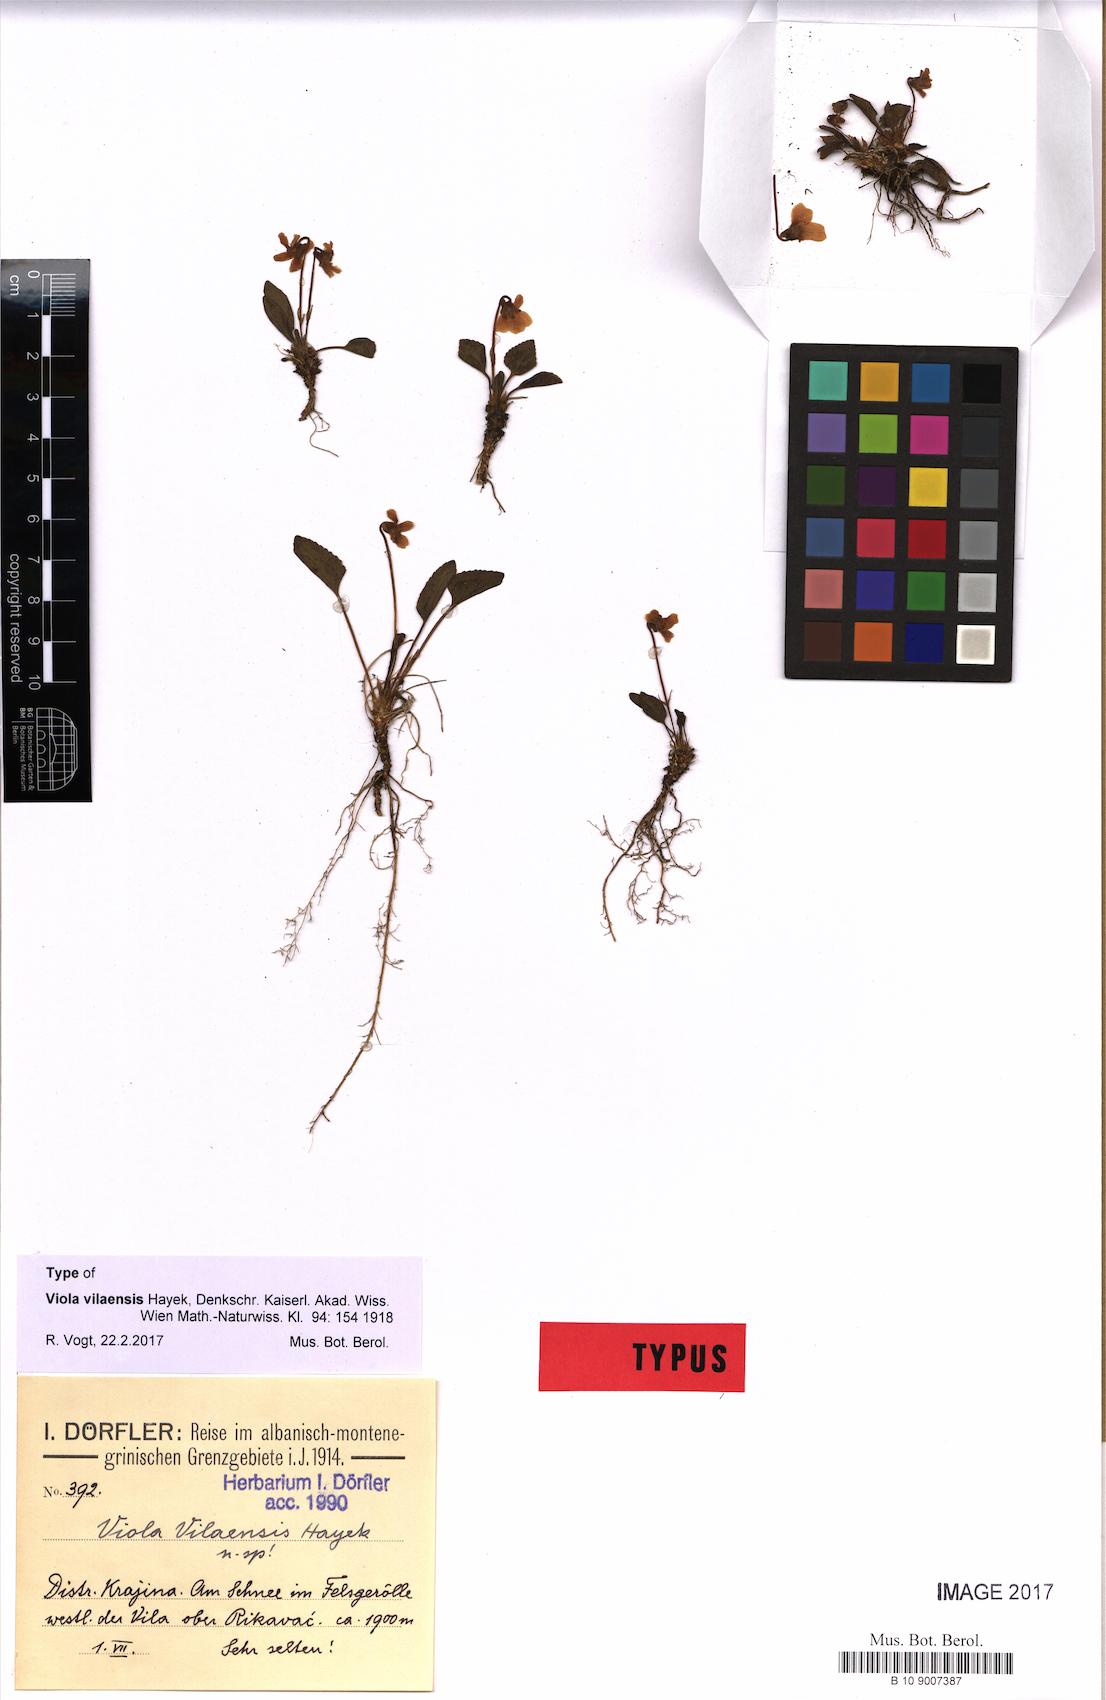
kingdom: Plantae
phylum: Tracheophyta
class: Magnoliopsida
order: Malpighiales
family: Violaceae
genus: Viola
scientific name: Viola vilaensis
